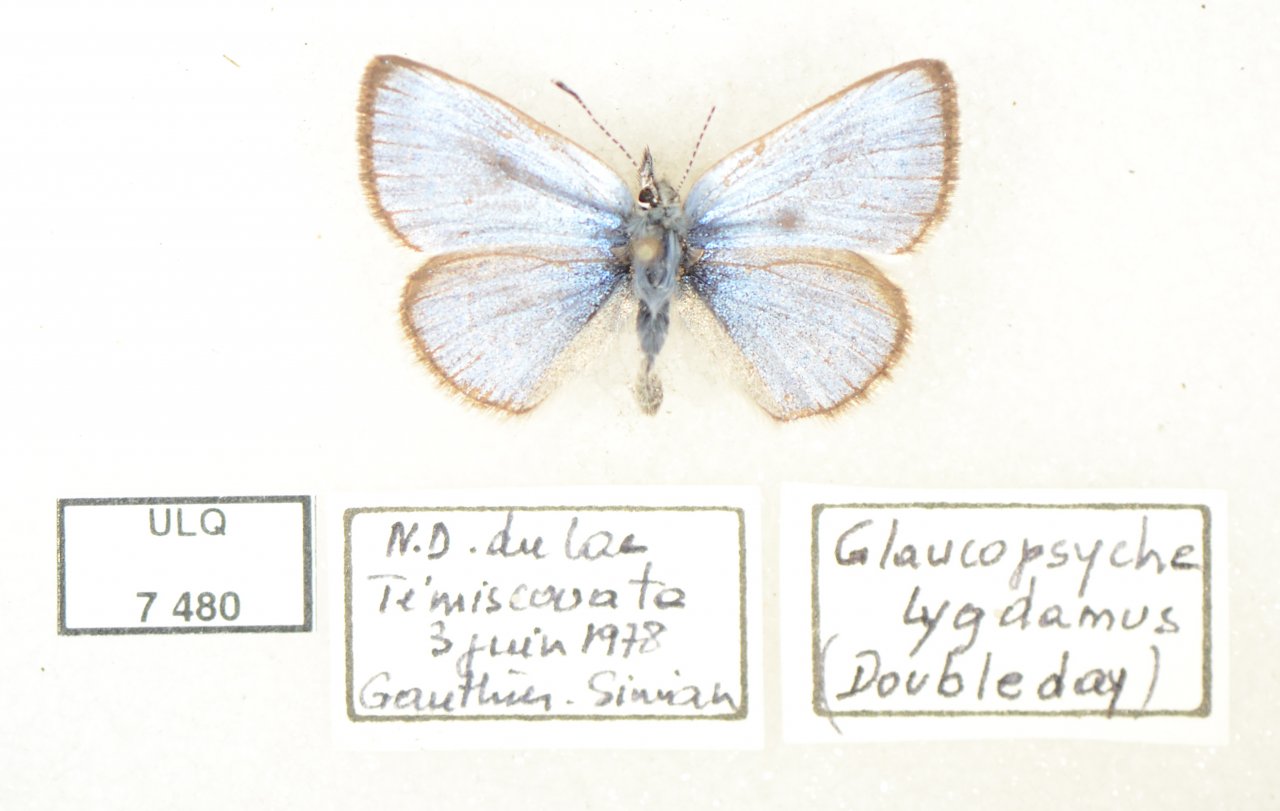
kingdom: Animalia
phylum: Arthropoda
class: Insecta
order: Lepidoptera
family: Lycaenidae
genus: Glaucopsyche
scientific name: Glaucopsyche lygdamus
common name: Silvery Blue
